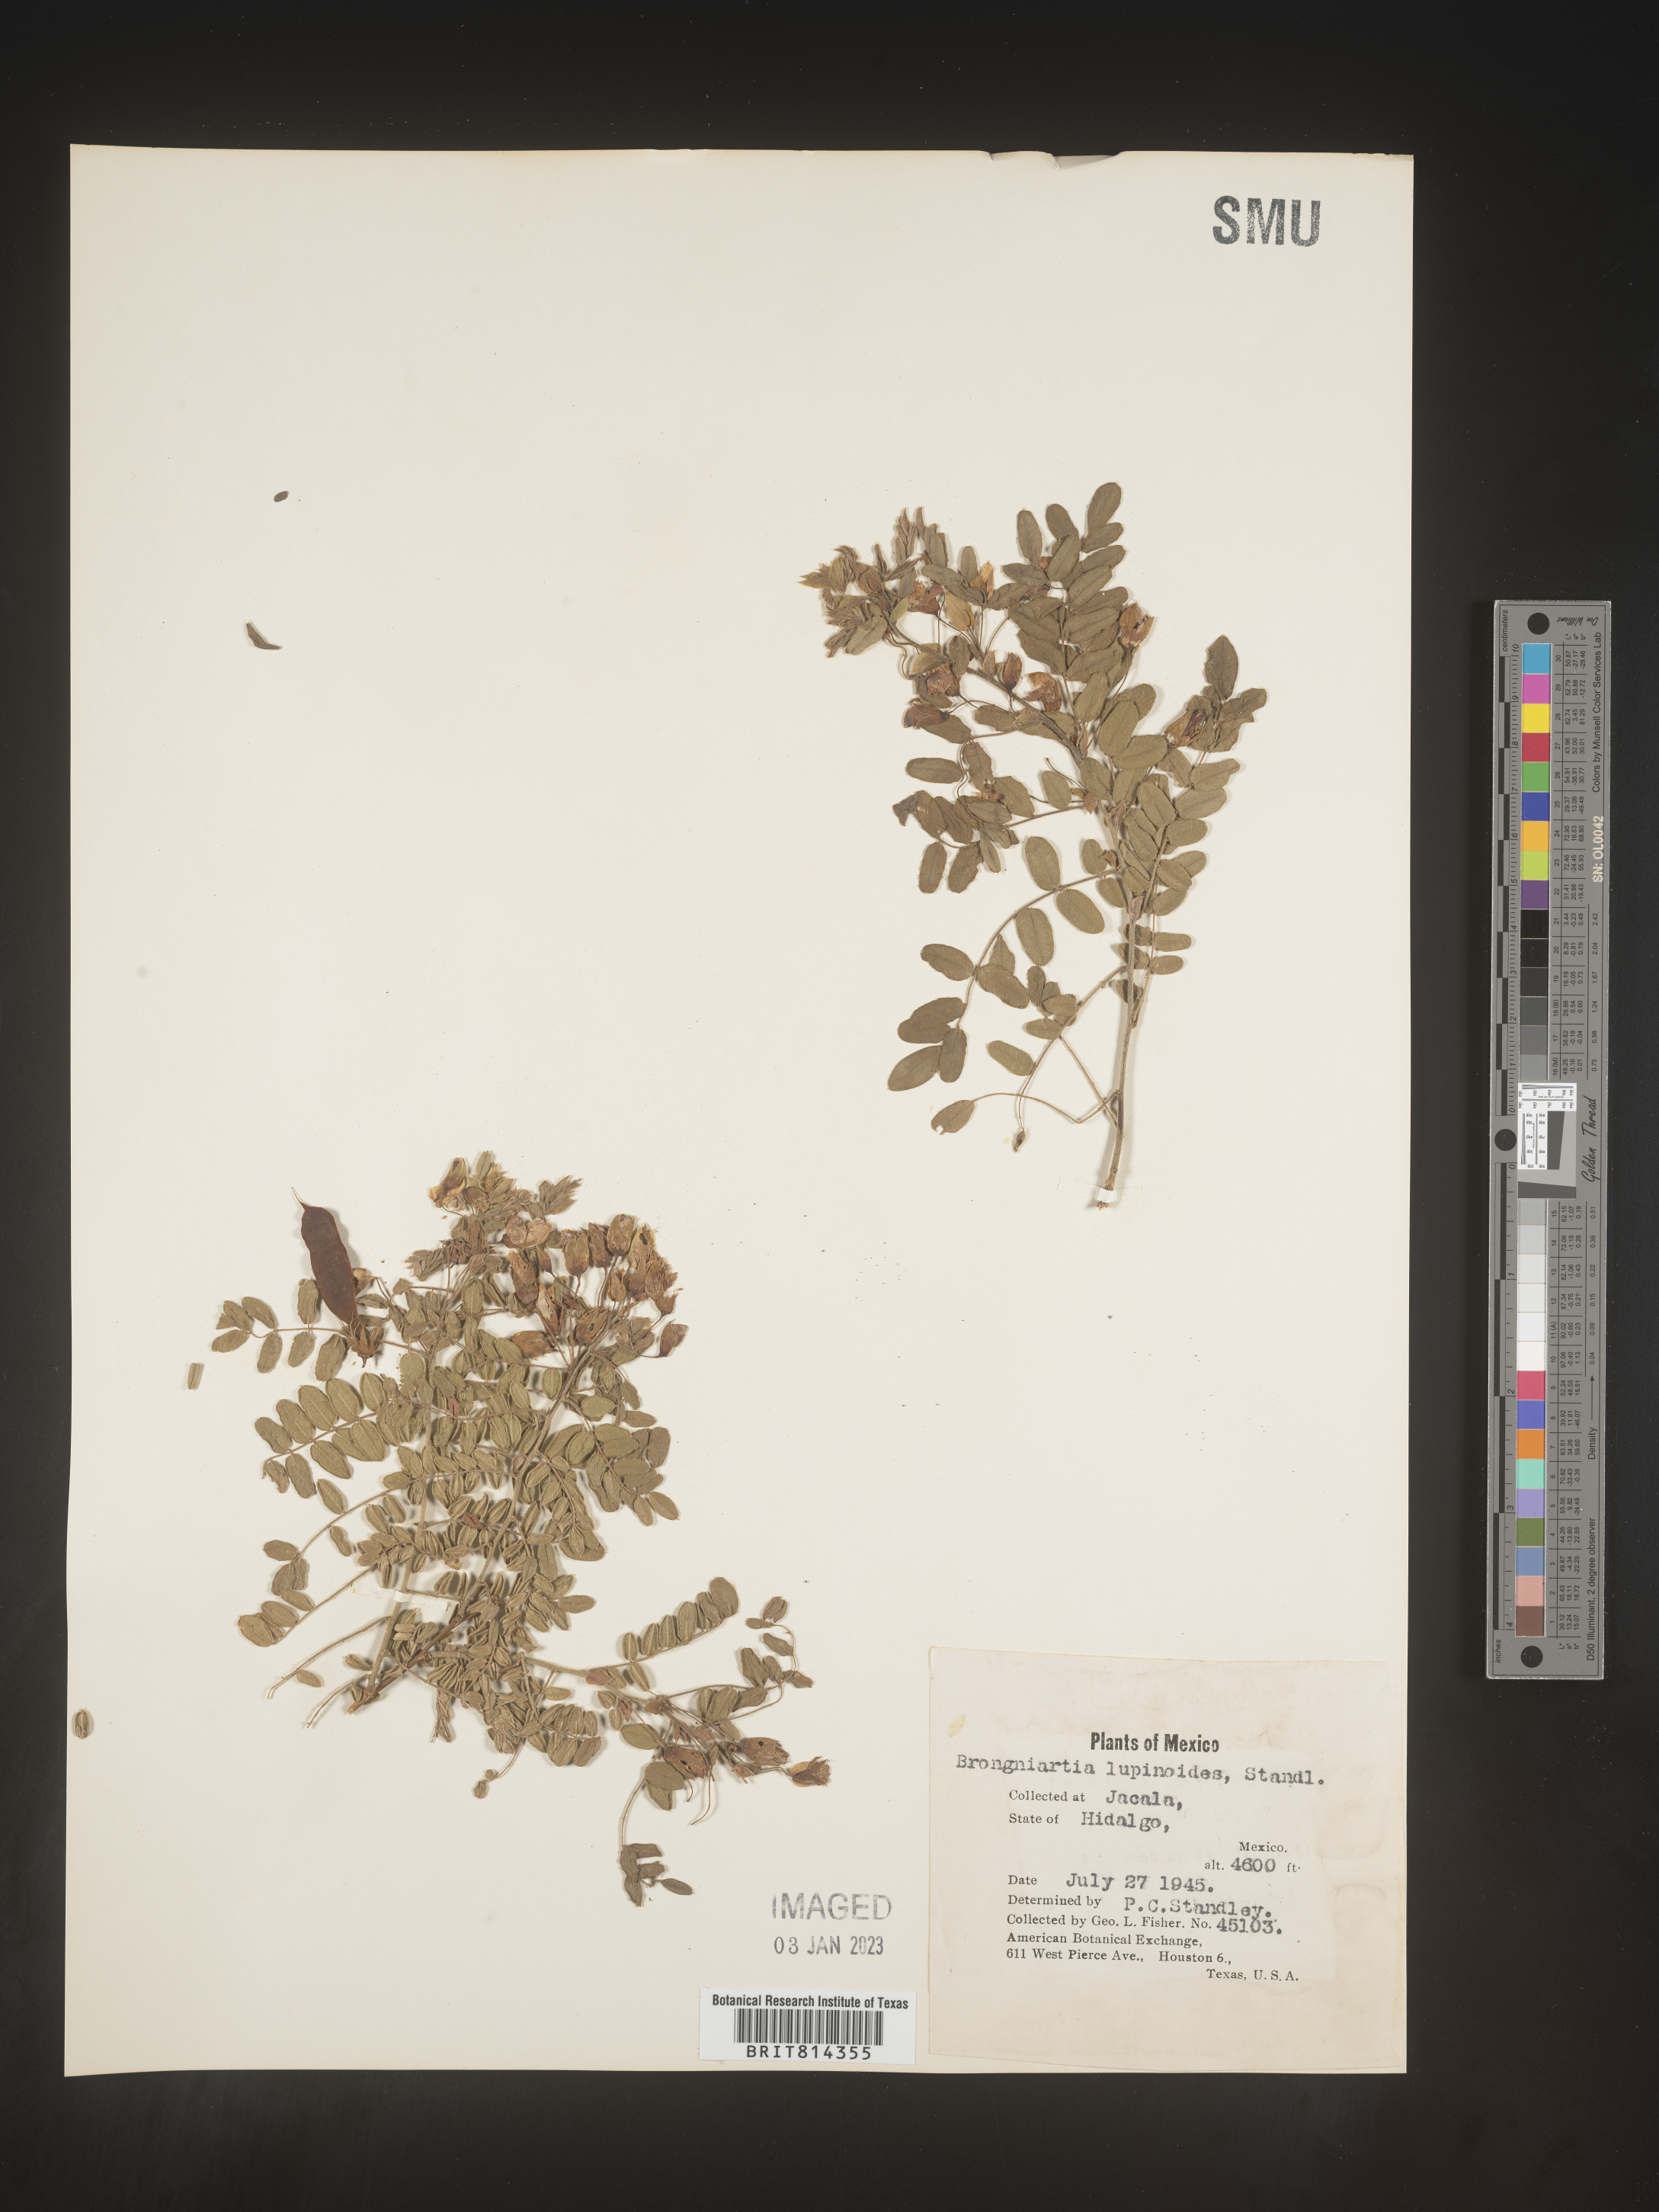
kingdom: Plantae
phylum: Tracheophyta
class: Magnoliopsida
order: Fabales
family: Fabaceae
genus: Brongniartia
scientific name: Brongniartia
